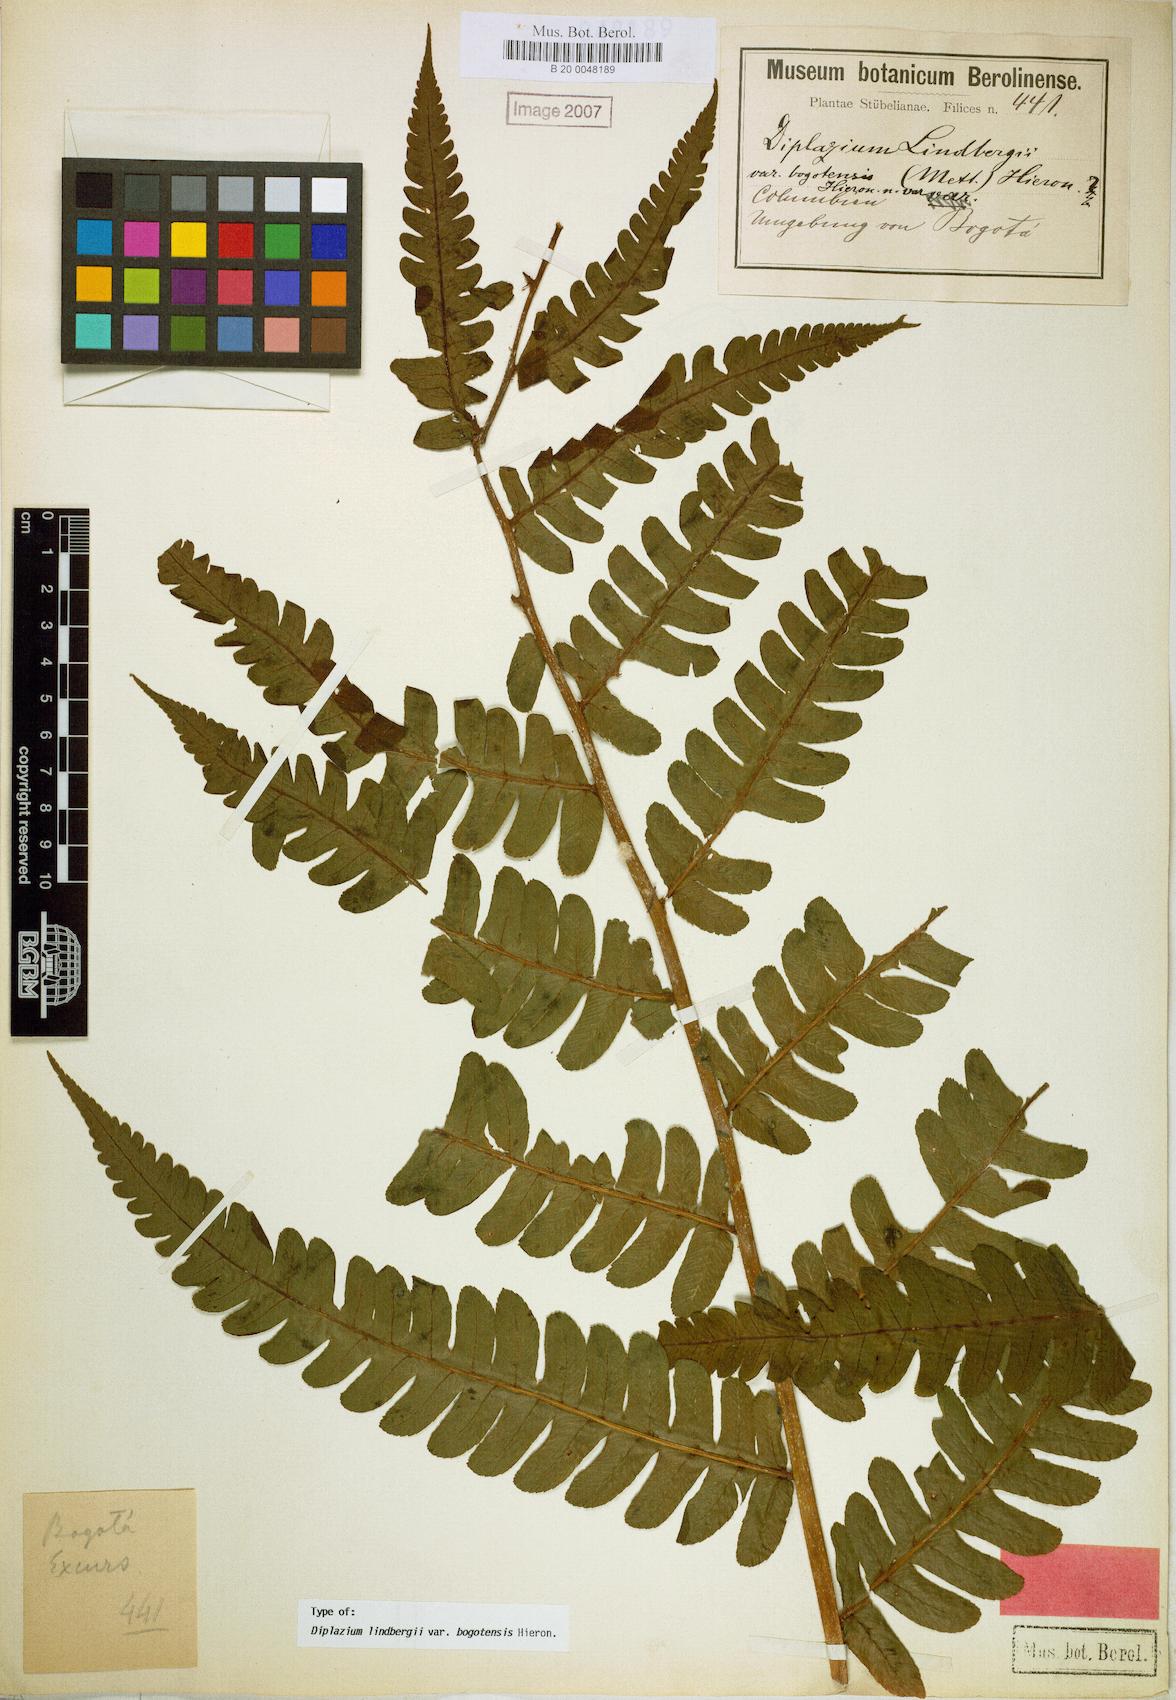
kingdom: Plantae
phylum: Tracheophyta
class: Polypodiopsida
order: Polypodiales
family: Athyriaceae
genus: Diplazium
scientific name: Diplazium lindbergii
